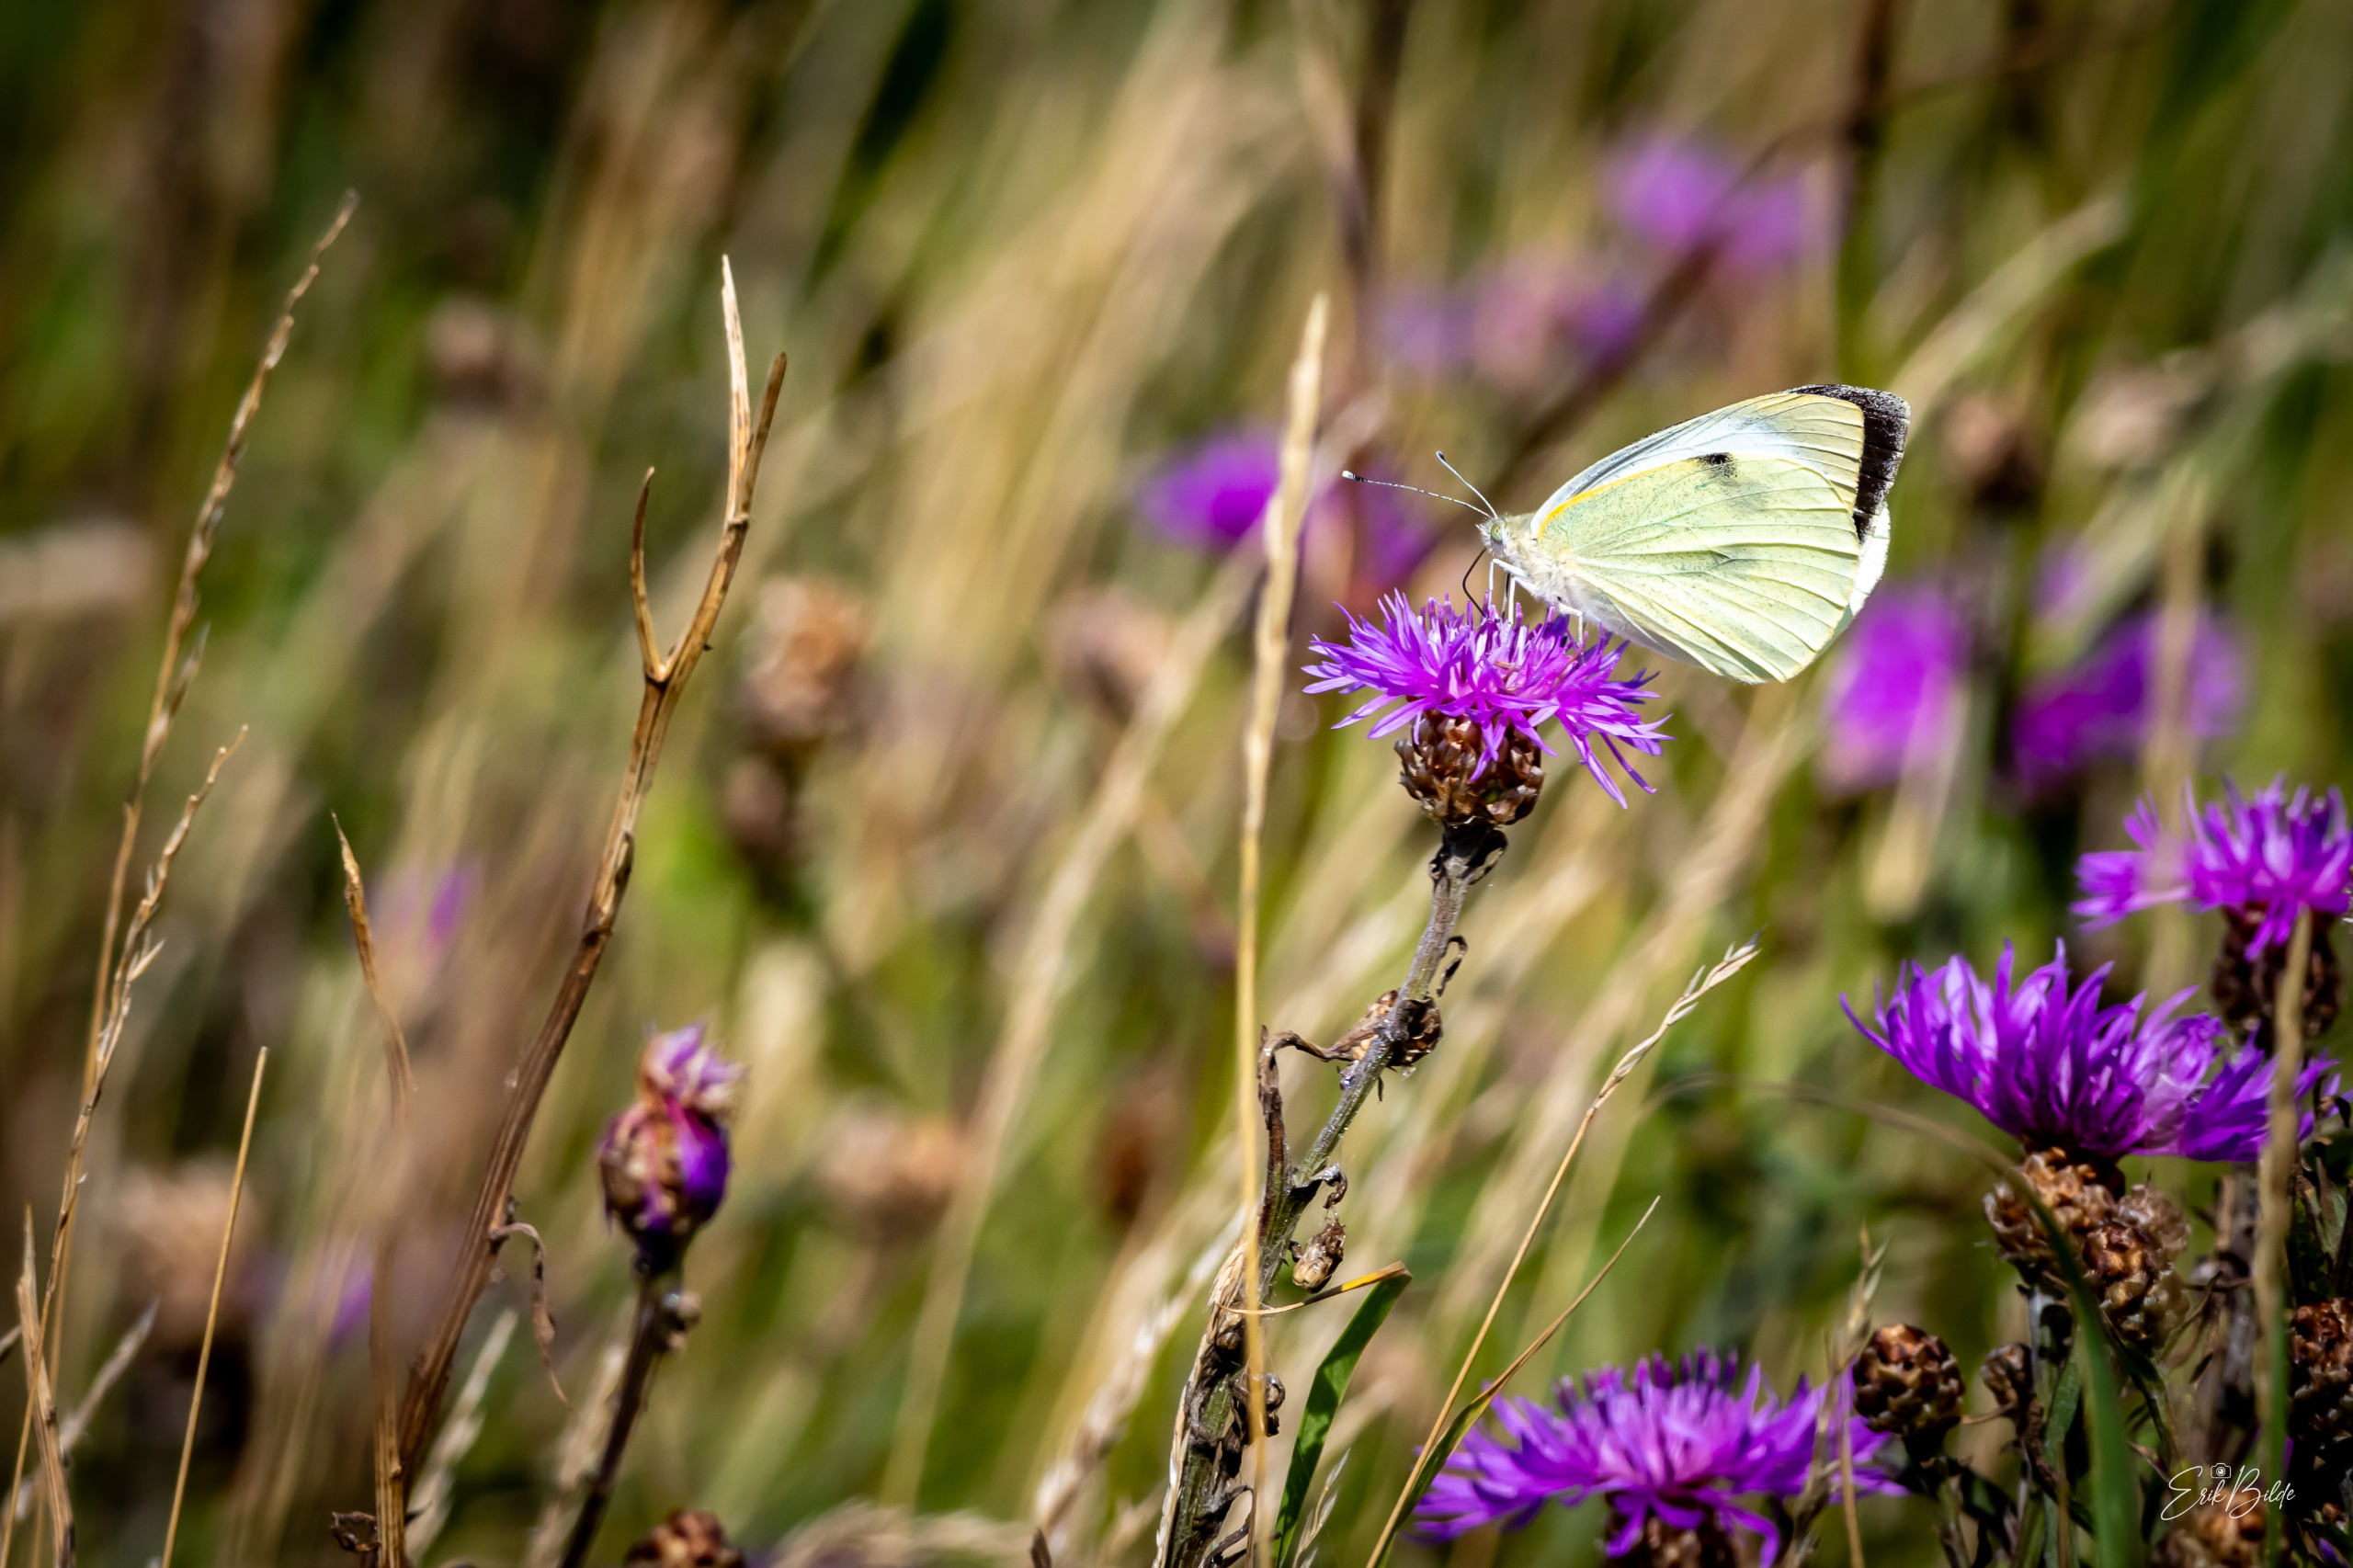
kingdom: Animalia
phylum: Arthropoda
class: Insecta
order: Lepidoptera
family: Pieridae
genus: Pieris
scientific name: Pieris brassicae
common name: Stor kålsommerfugl
